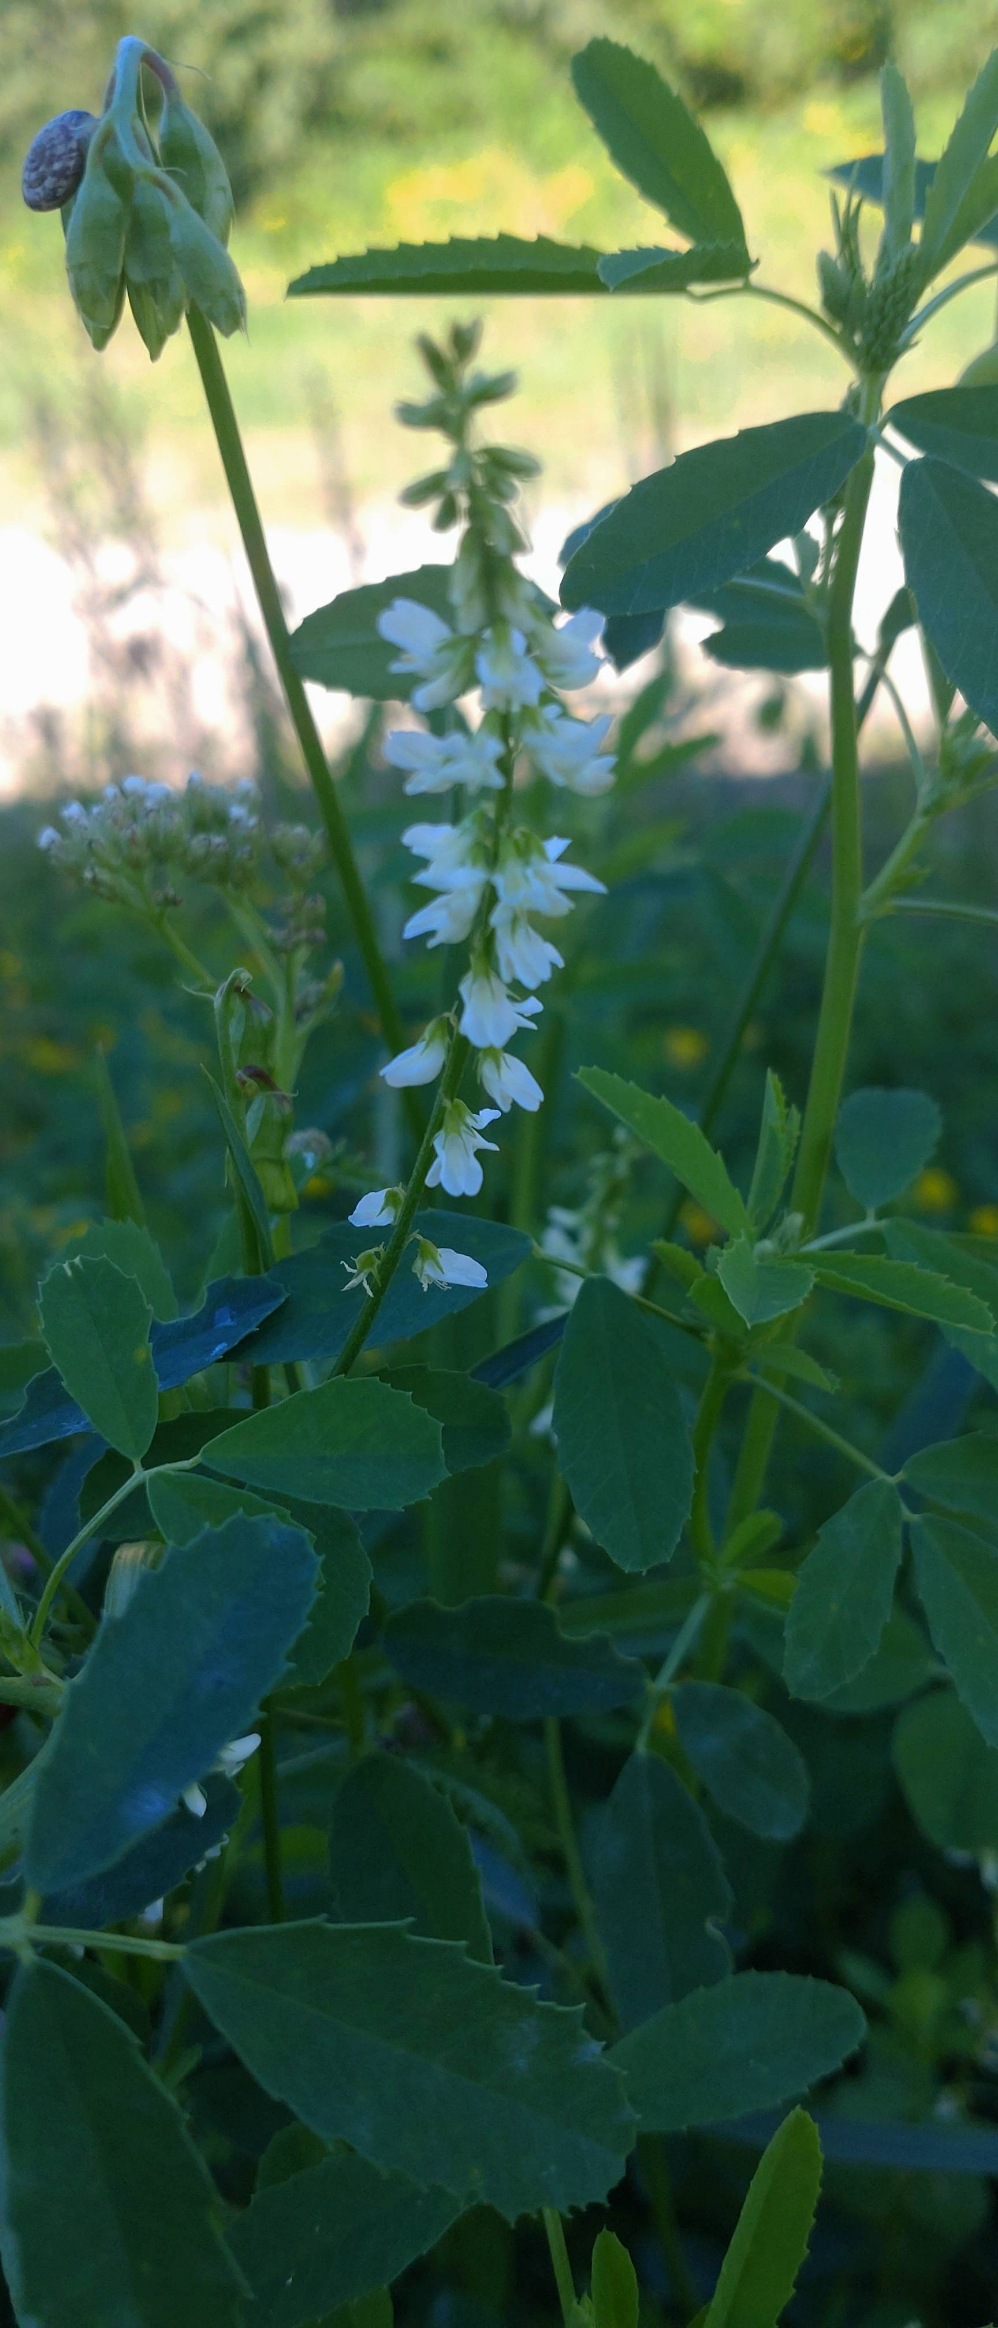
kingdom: Plantae
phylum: Tracheophyta
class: Magnoliopsida
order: Fabales
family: Fabaceae
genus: Melilotus
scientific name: Melilotus albus
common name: Hvid stenkløver
